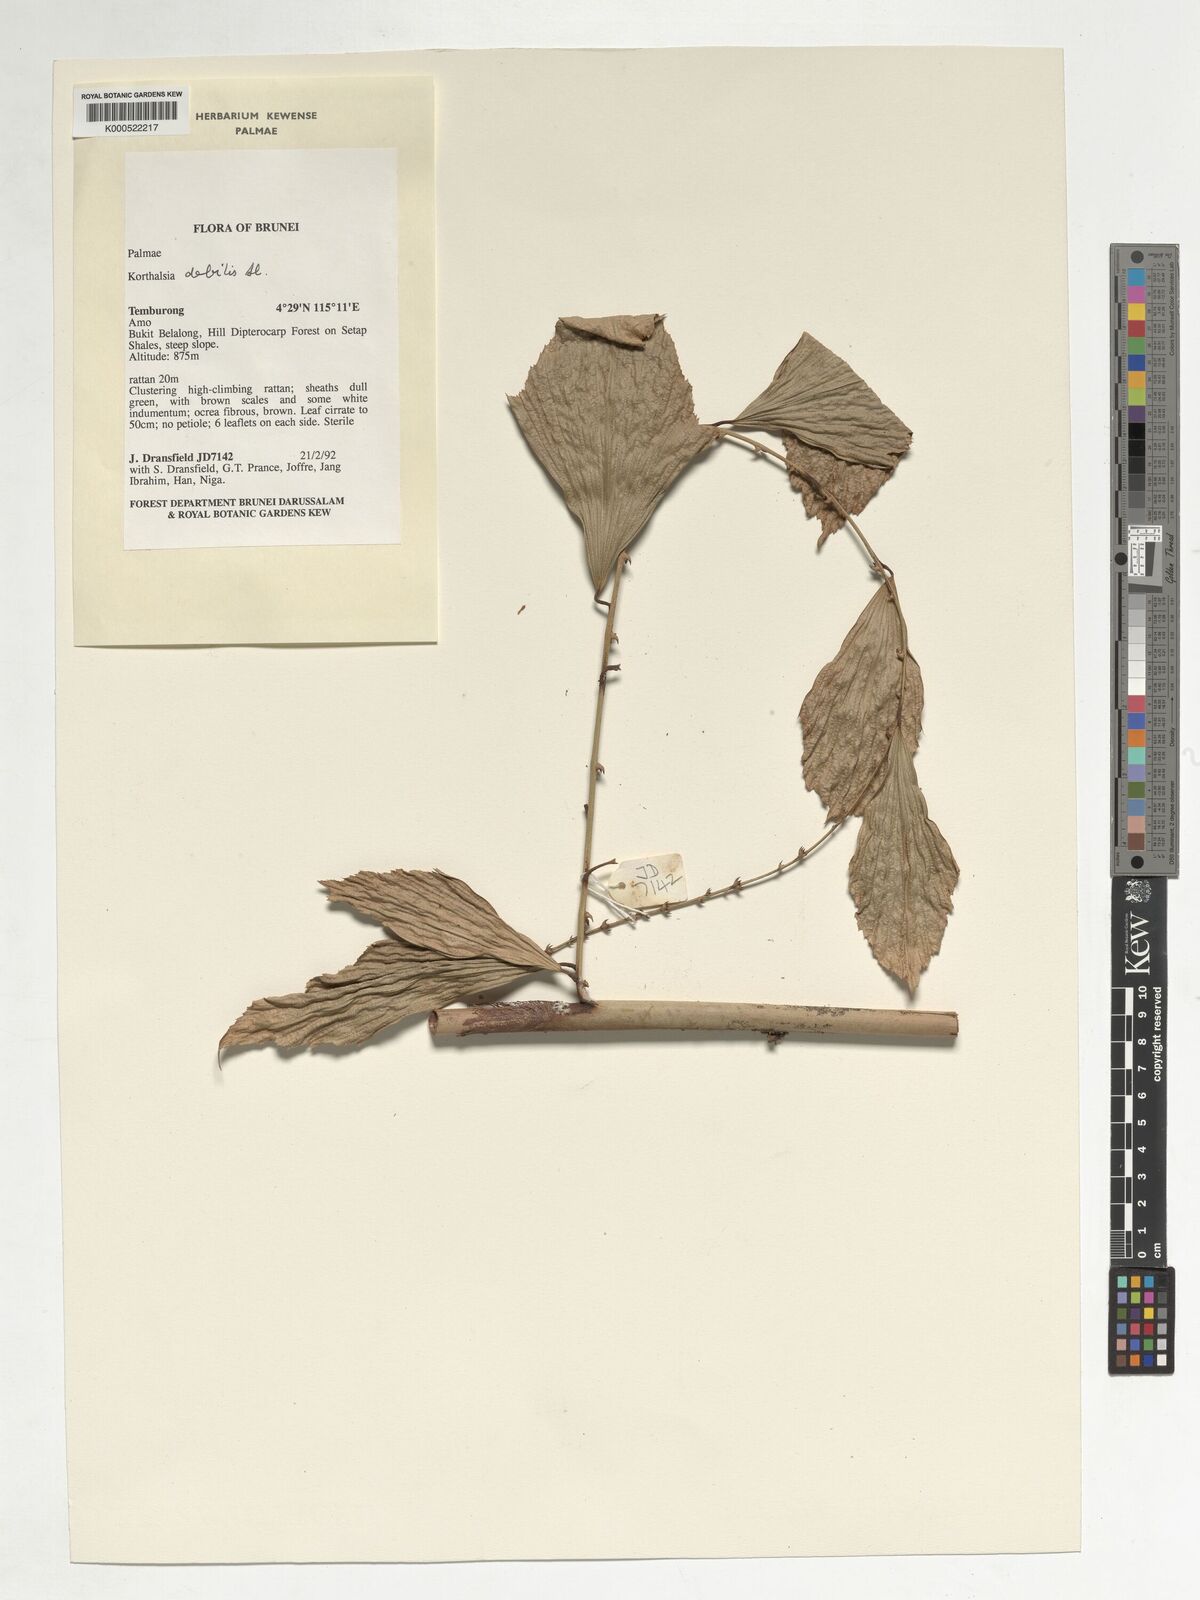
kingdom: Plantae
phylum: Tracheophyta
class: Liliopsida
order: Arecales
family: Arecaceae
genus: Korthalsia
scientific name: Korthalsia debilis
